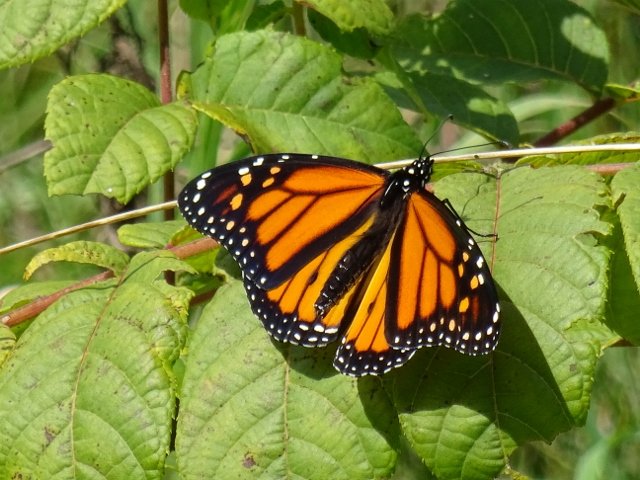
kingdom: Animalia
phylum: Arthropoda
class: Insecta
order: Lepidoptera
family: Nymphalidae
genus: Danaus
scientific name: Danaus plexippus
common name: Monarch
